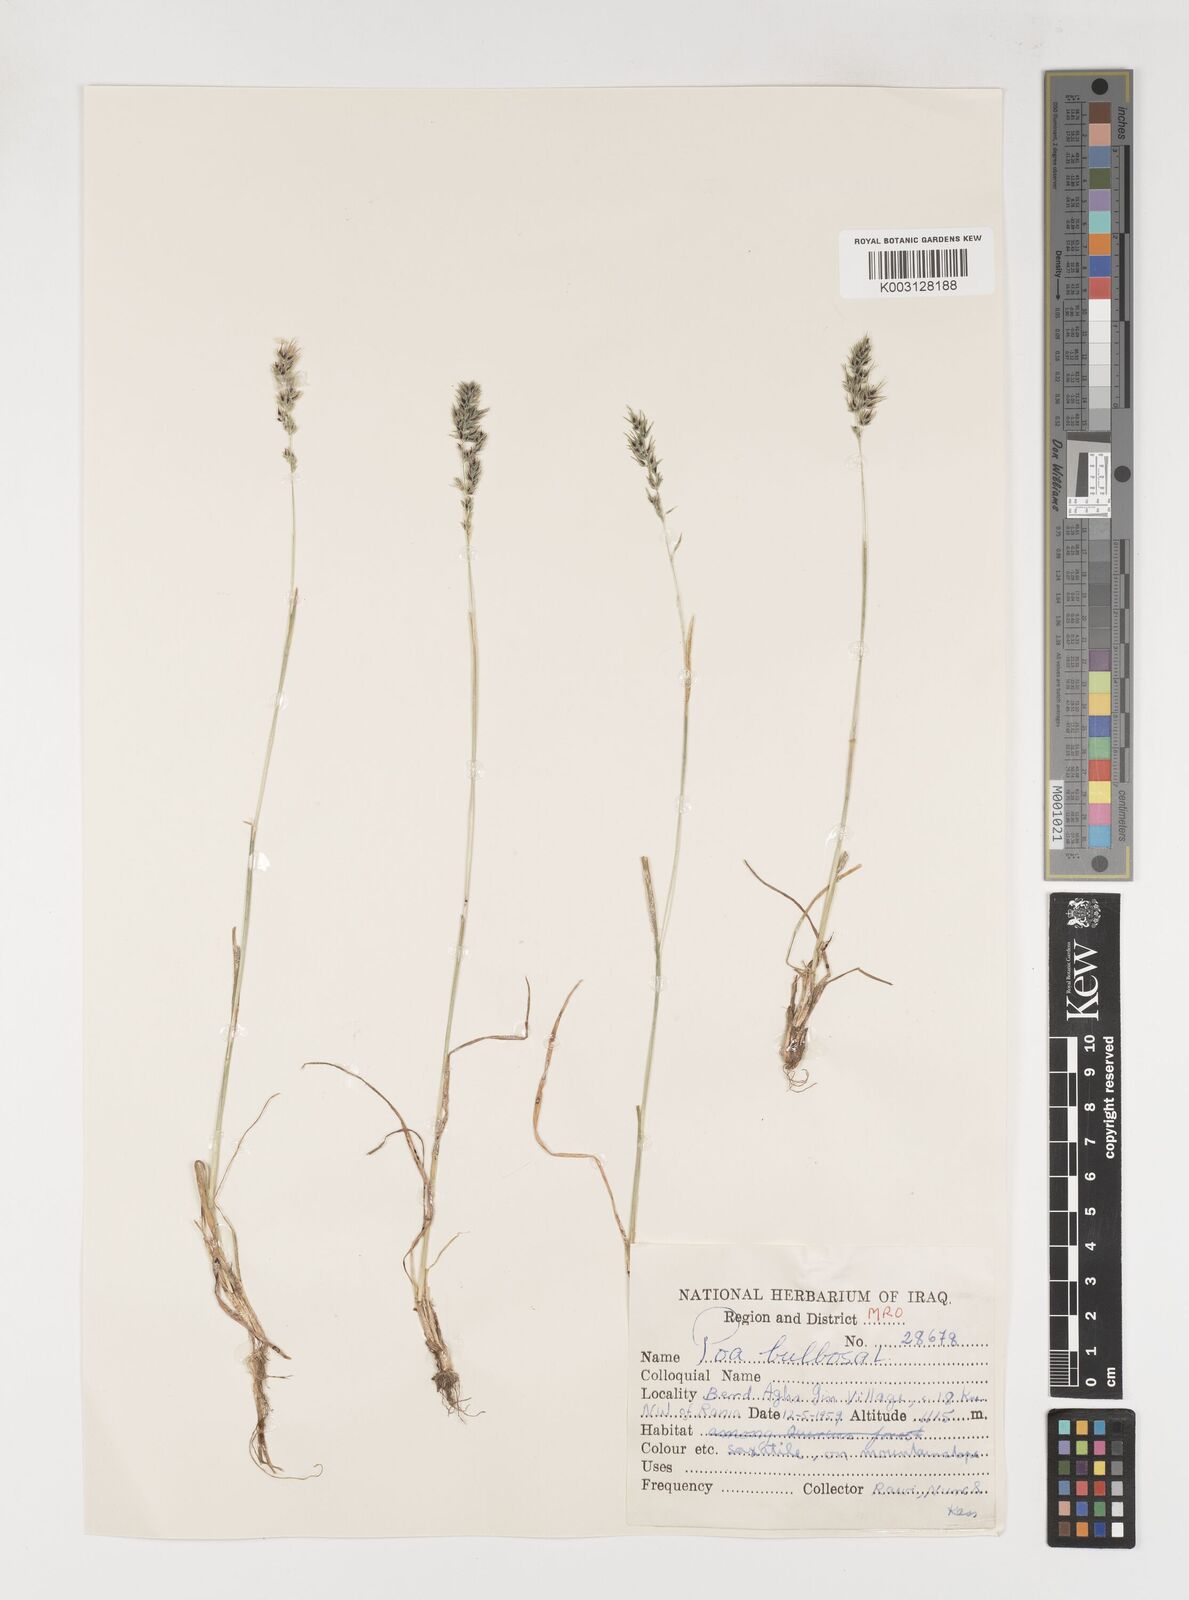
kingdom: Plantae
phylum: Tracheophyta
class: Liliopsida
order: Poales
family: Poaceae
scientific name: Poaceae
